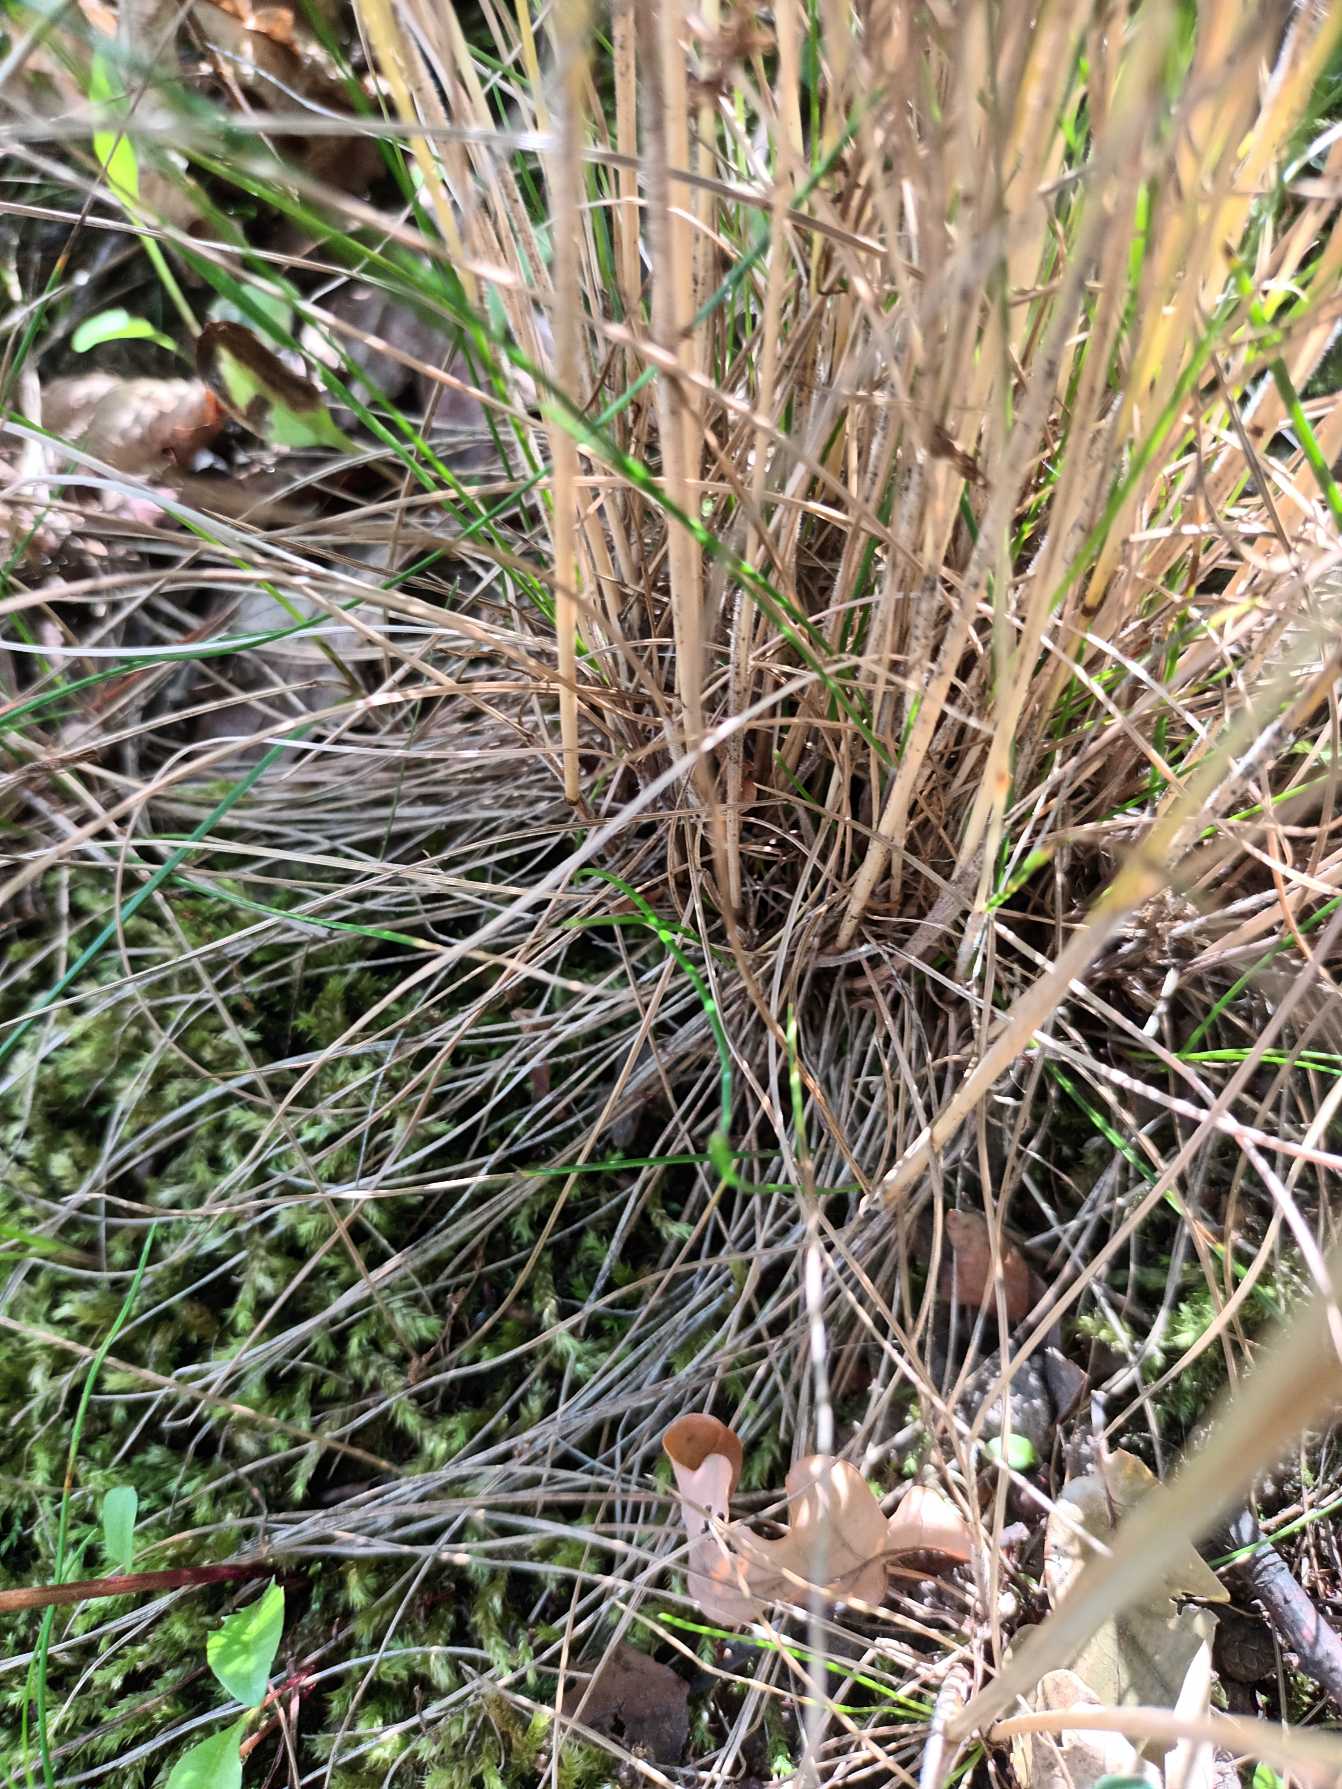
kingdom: Plantae
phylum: Tracheophyta
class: Liliopsida
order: Poales
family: Poaceae
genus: Festuca
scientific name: Festuca nigrescens
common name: Vej-svingel
